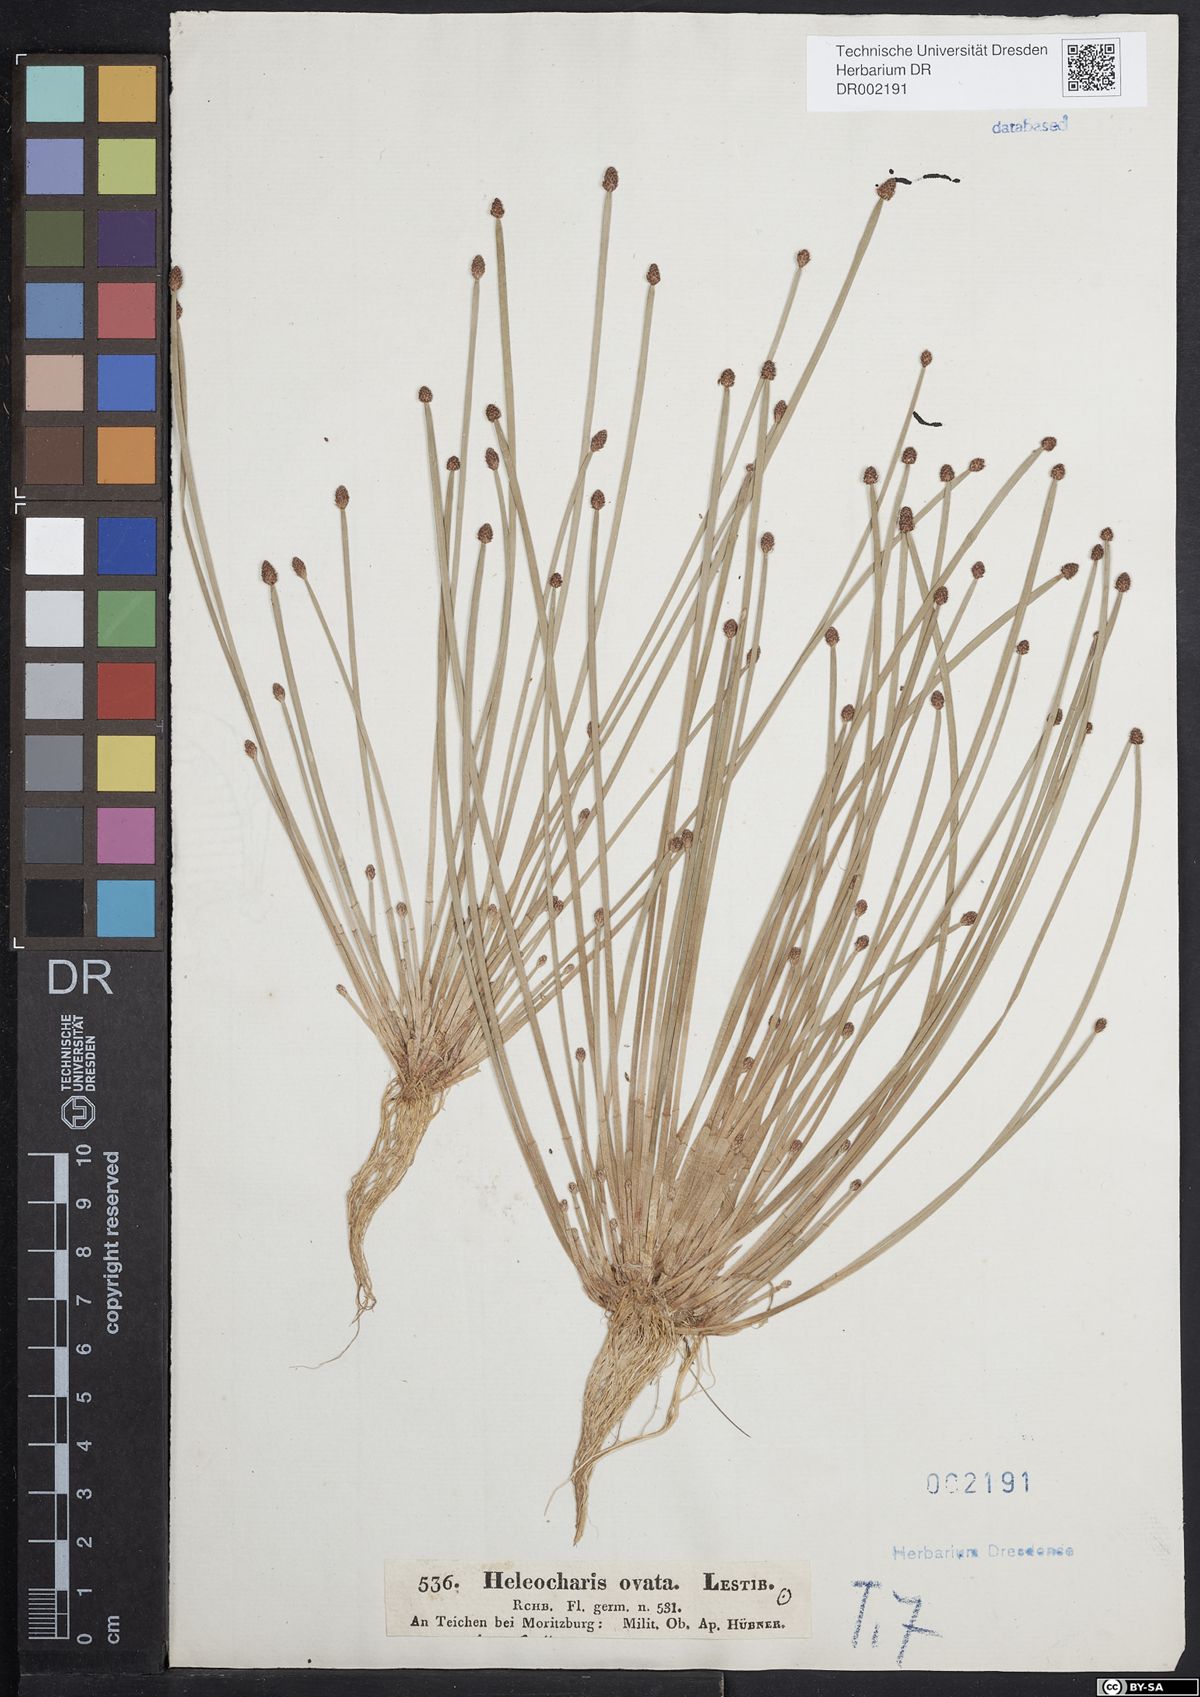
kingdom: Plantae
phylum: Tracheophyta
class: Liliopsida
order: Poales
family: Cyperaceae
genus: Eleocharis
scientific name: Eleocharis ovata
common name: Oval spike-rush
